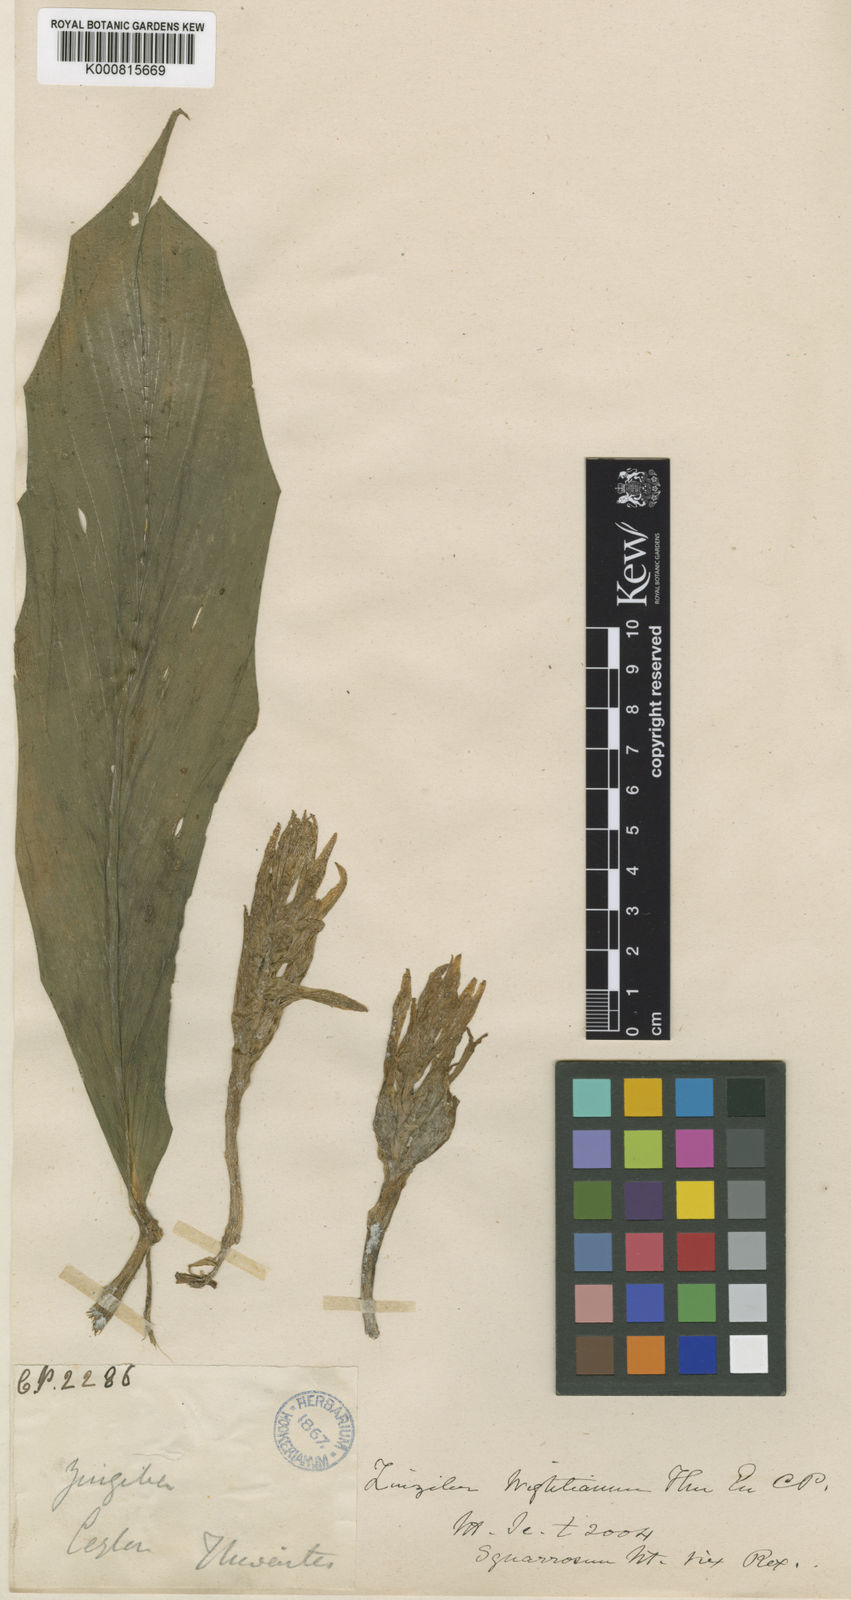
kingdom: Plantae
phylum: Tracheophyta
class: Liliopsida
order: Zingiberales
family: Zingiberaceae
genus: Zingiber
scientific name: Zingiber wightianum
